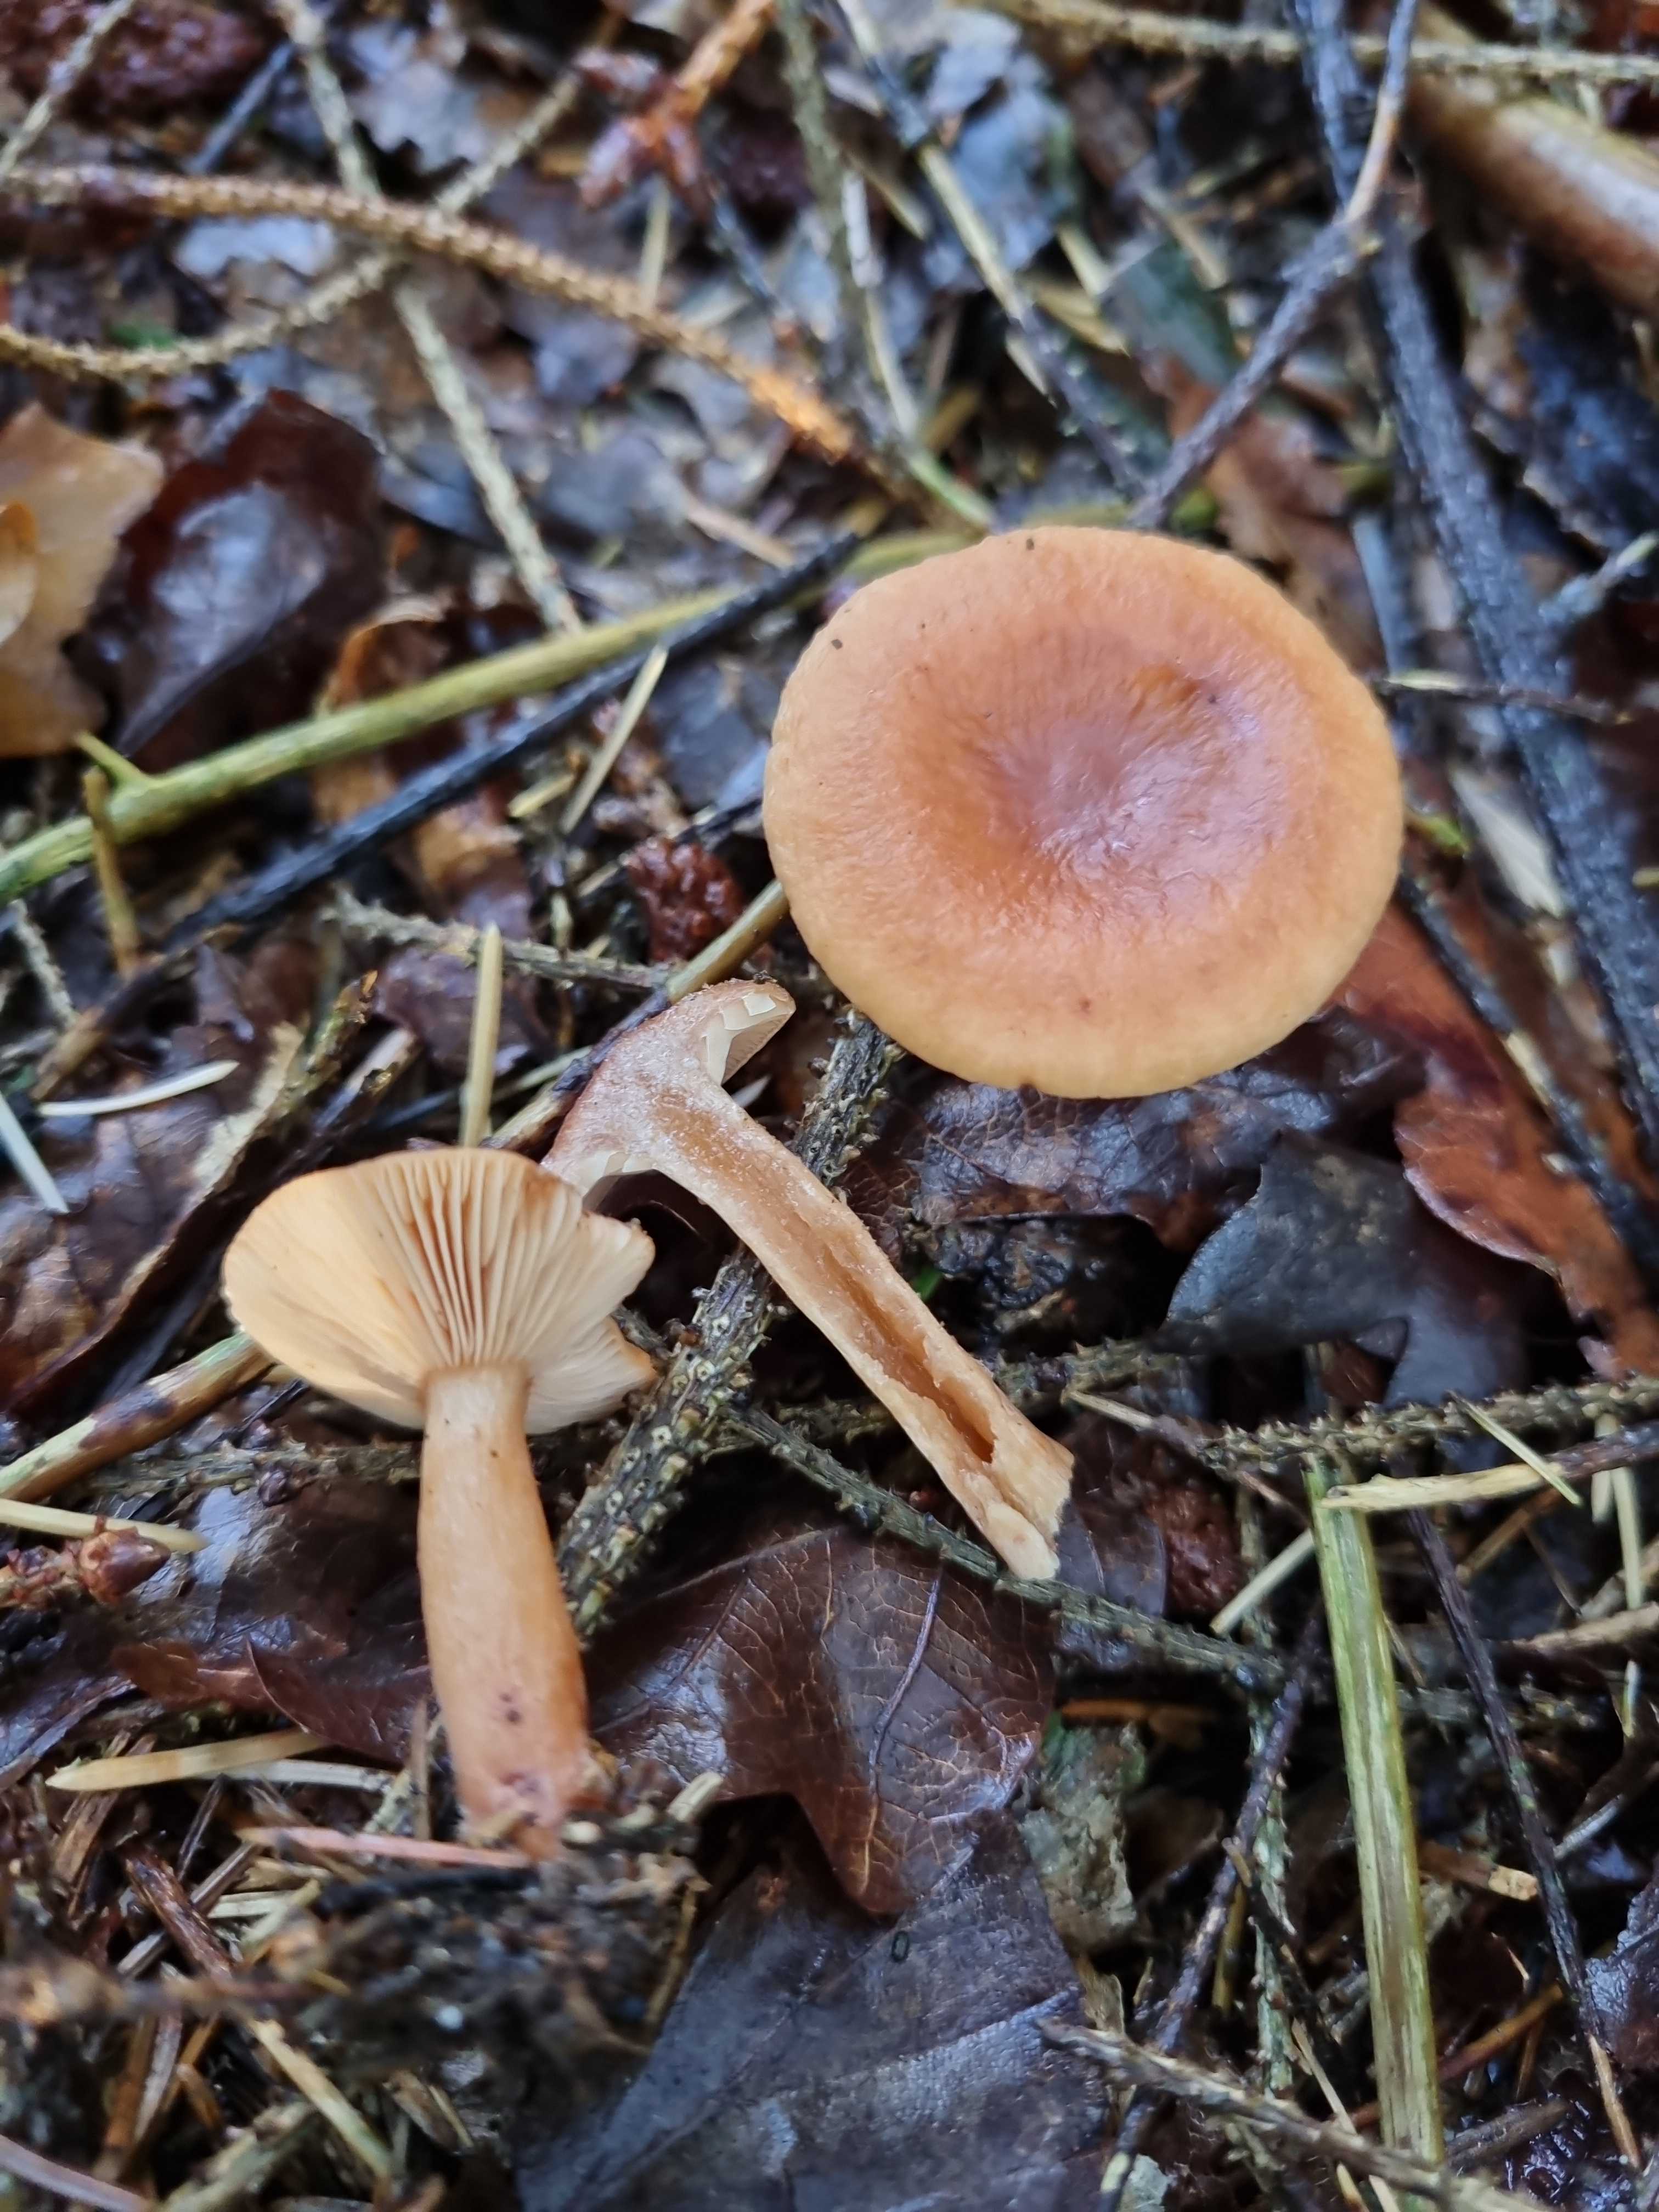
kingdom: Fungi
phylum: Basidiomycota
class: Agaricomycetes
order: Russulales
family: Russulaceae
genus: Lactarius
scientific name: Lactarius tabidus
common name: rynket mælkehat
